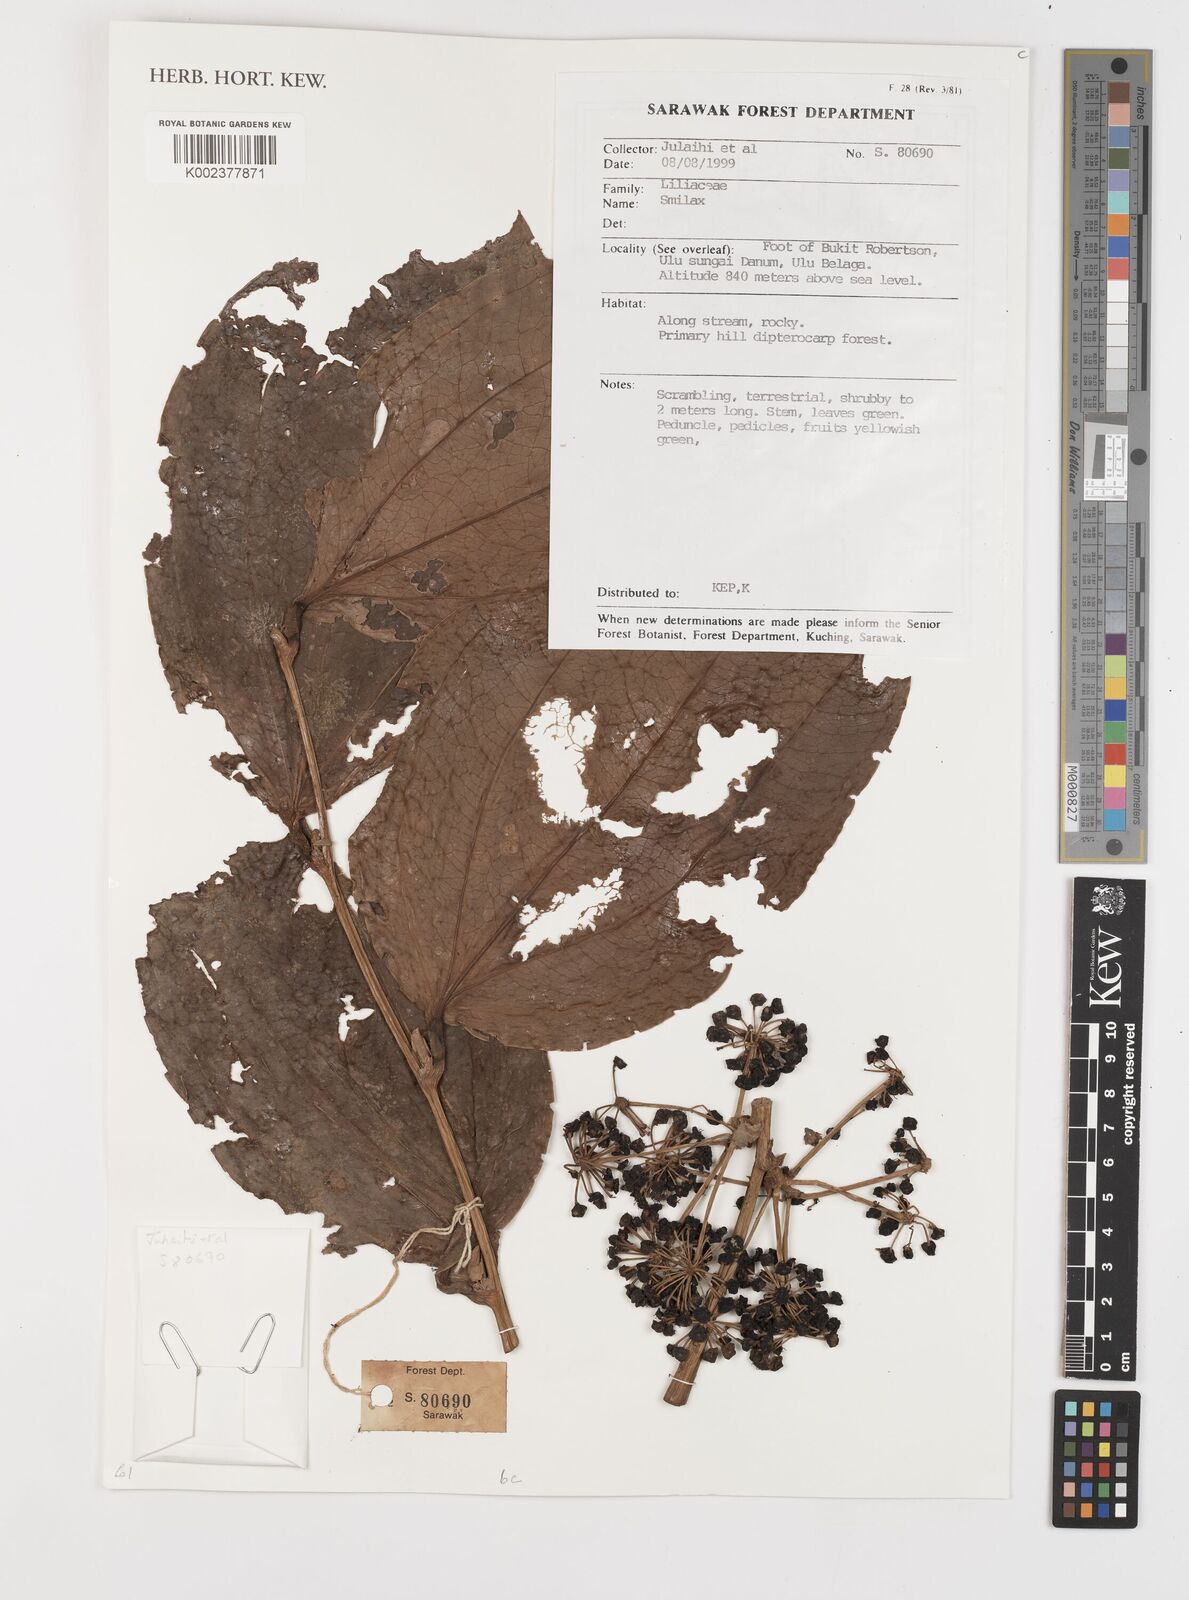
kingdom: Plantae
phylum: Tracheophyta
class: Liliopsida
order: Liliales
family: Smilacaceae
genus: Smilax
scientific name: Smilax
